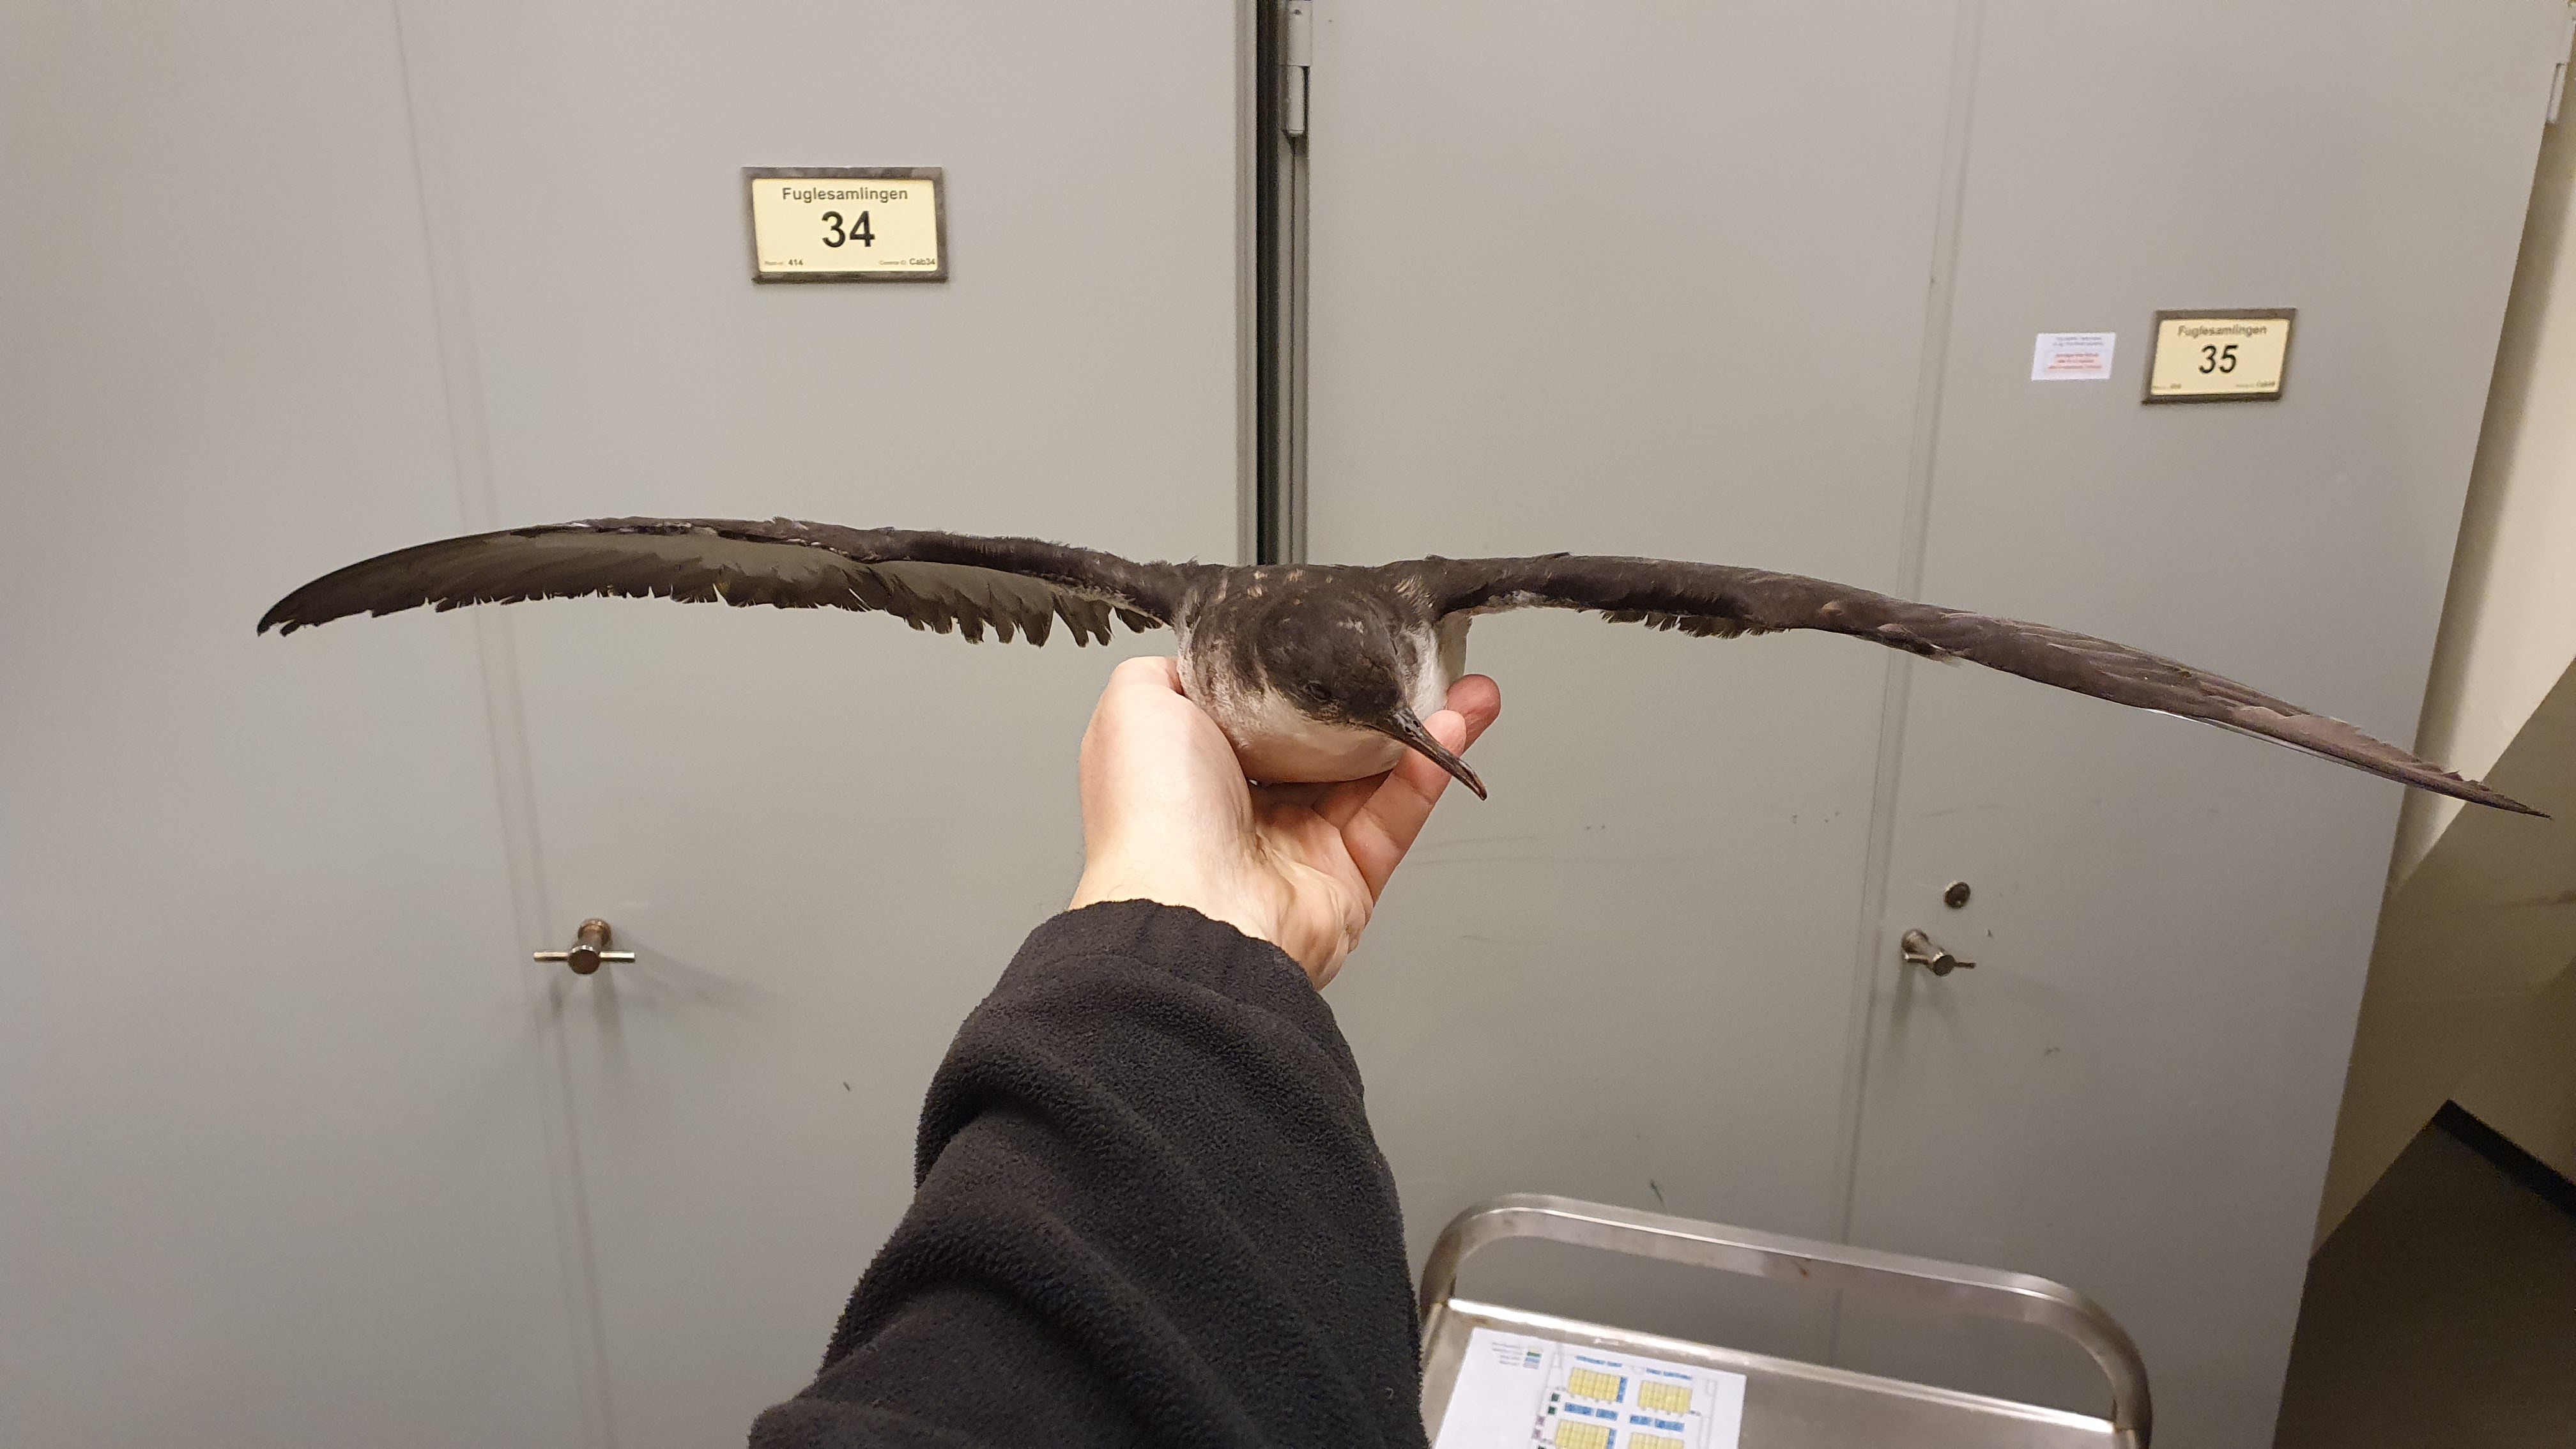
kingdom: Animalia
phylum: Chordata
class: Aves
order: Procellariiformes
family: Procellariidae
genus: Puffinus
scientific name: Puffinus puffinus
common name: Manx shearwater
